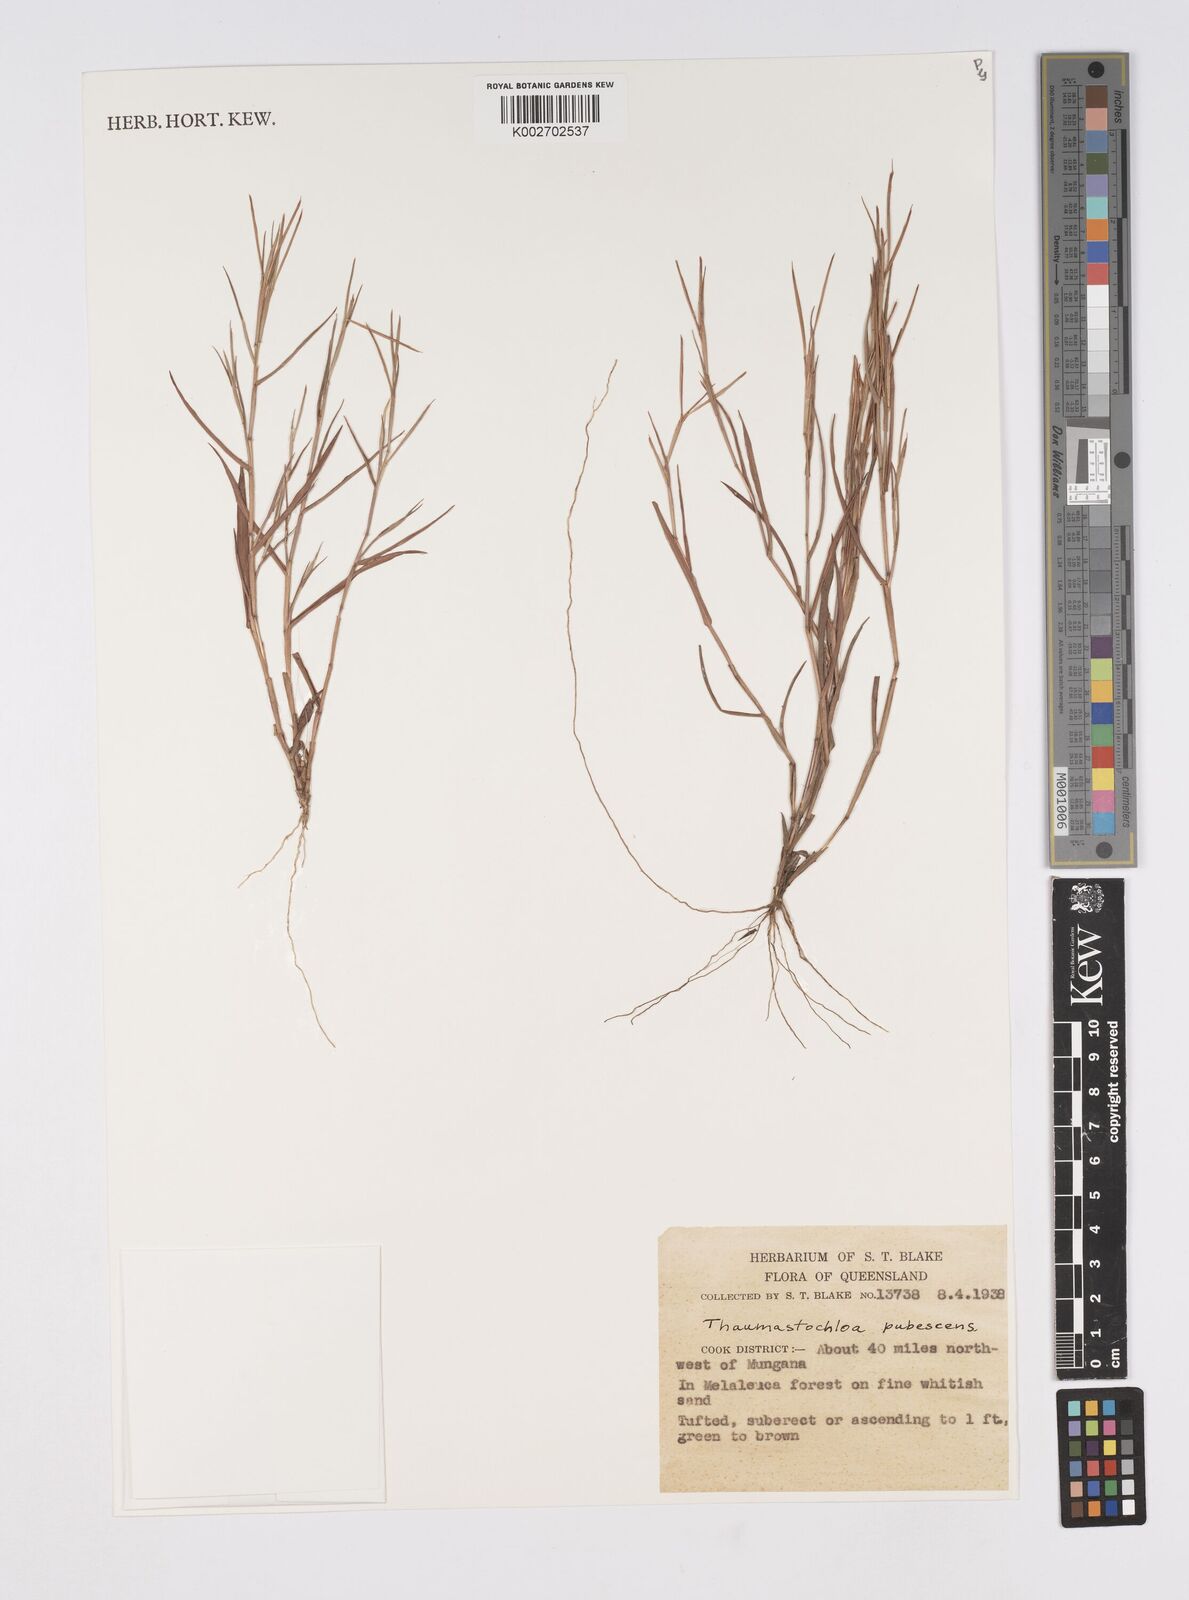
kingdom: Plantae
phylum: Tracheophyta
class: Liliopsida
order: Poales
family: Poaceae
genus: Thaumastochloa
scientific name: Thaumastochloa pubescens
